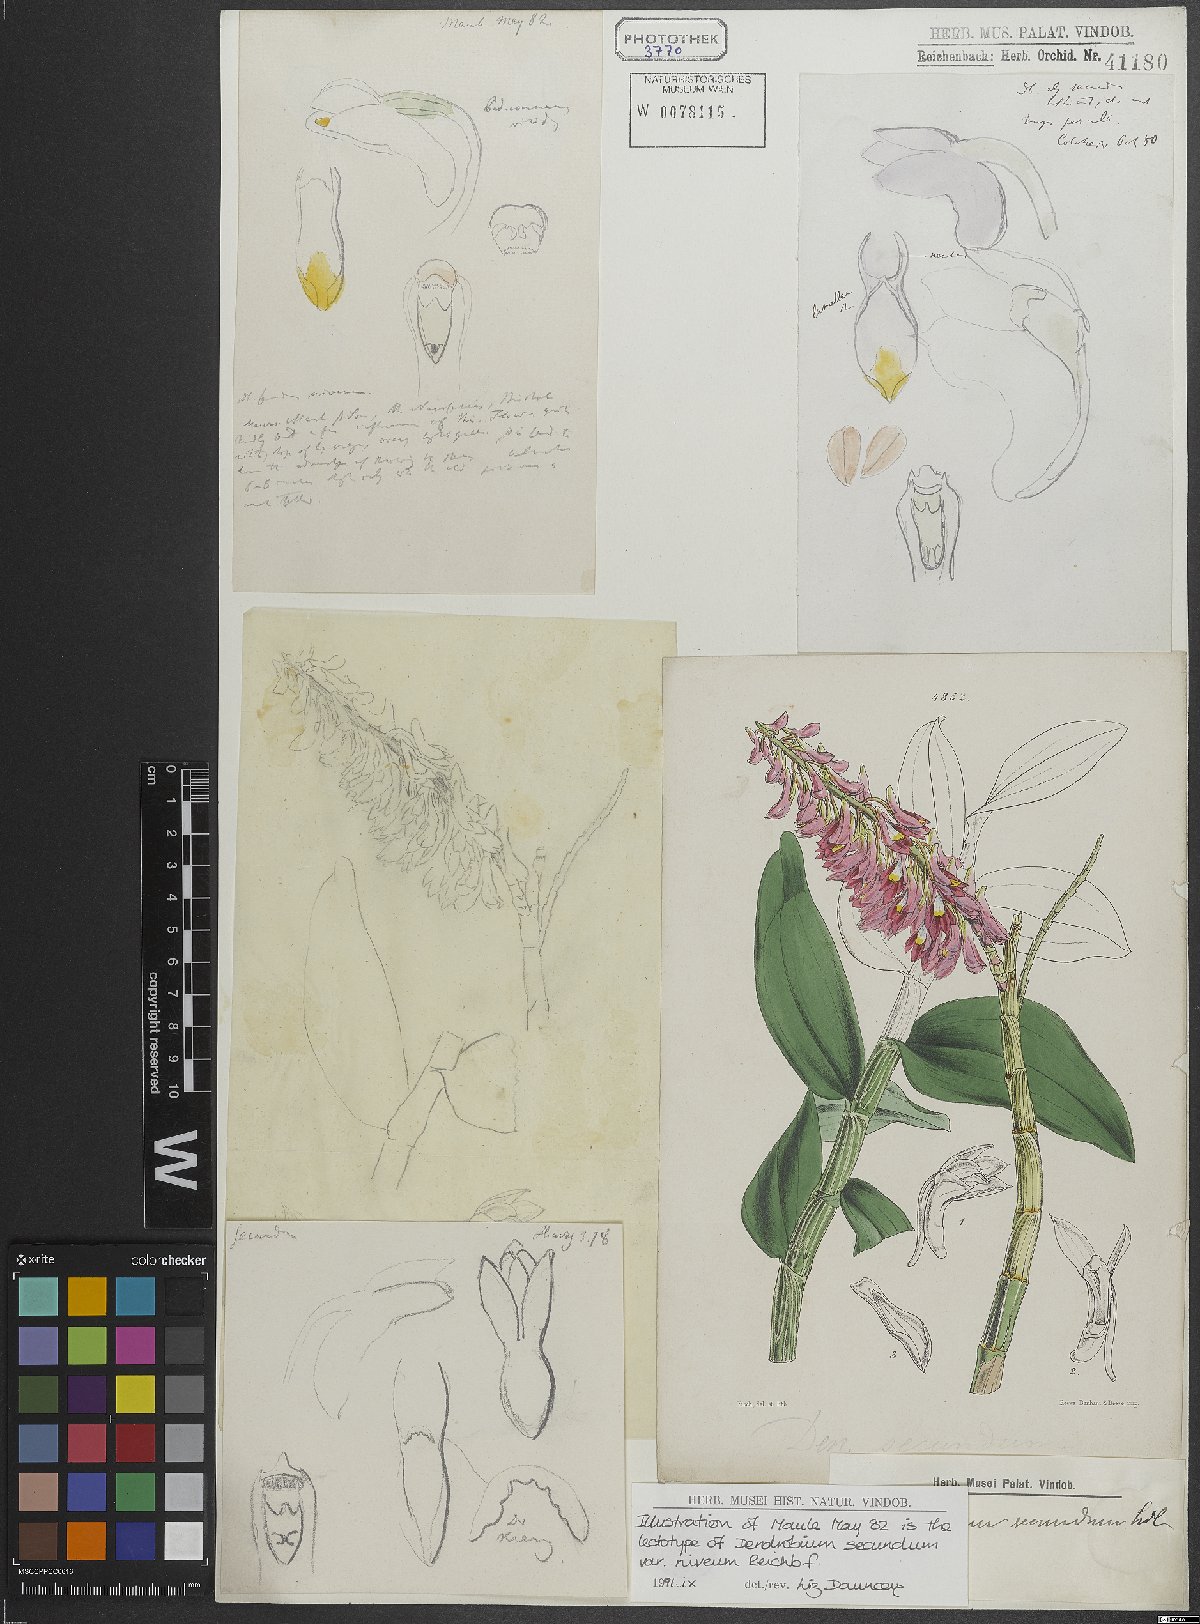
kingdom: Plantae
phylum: Tracheophyta
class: Liliopsida
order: Asparagales
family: Orchidaceae
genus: Dendrobium
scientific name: Dendrobium secundum
